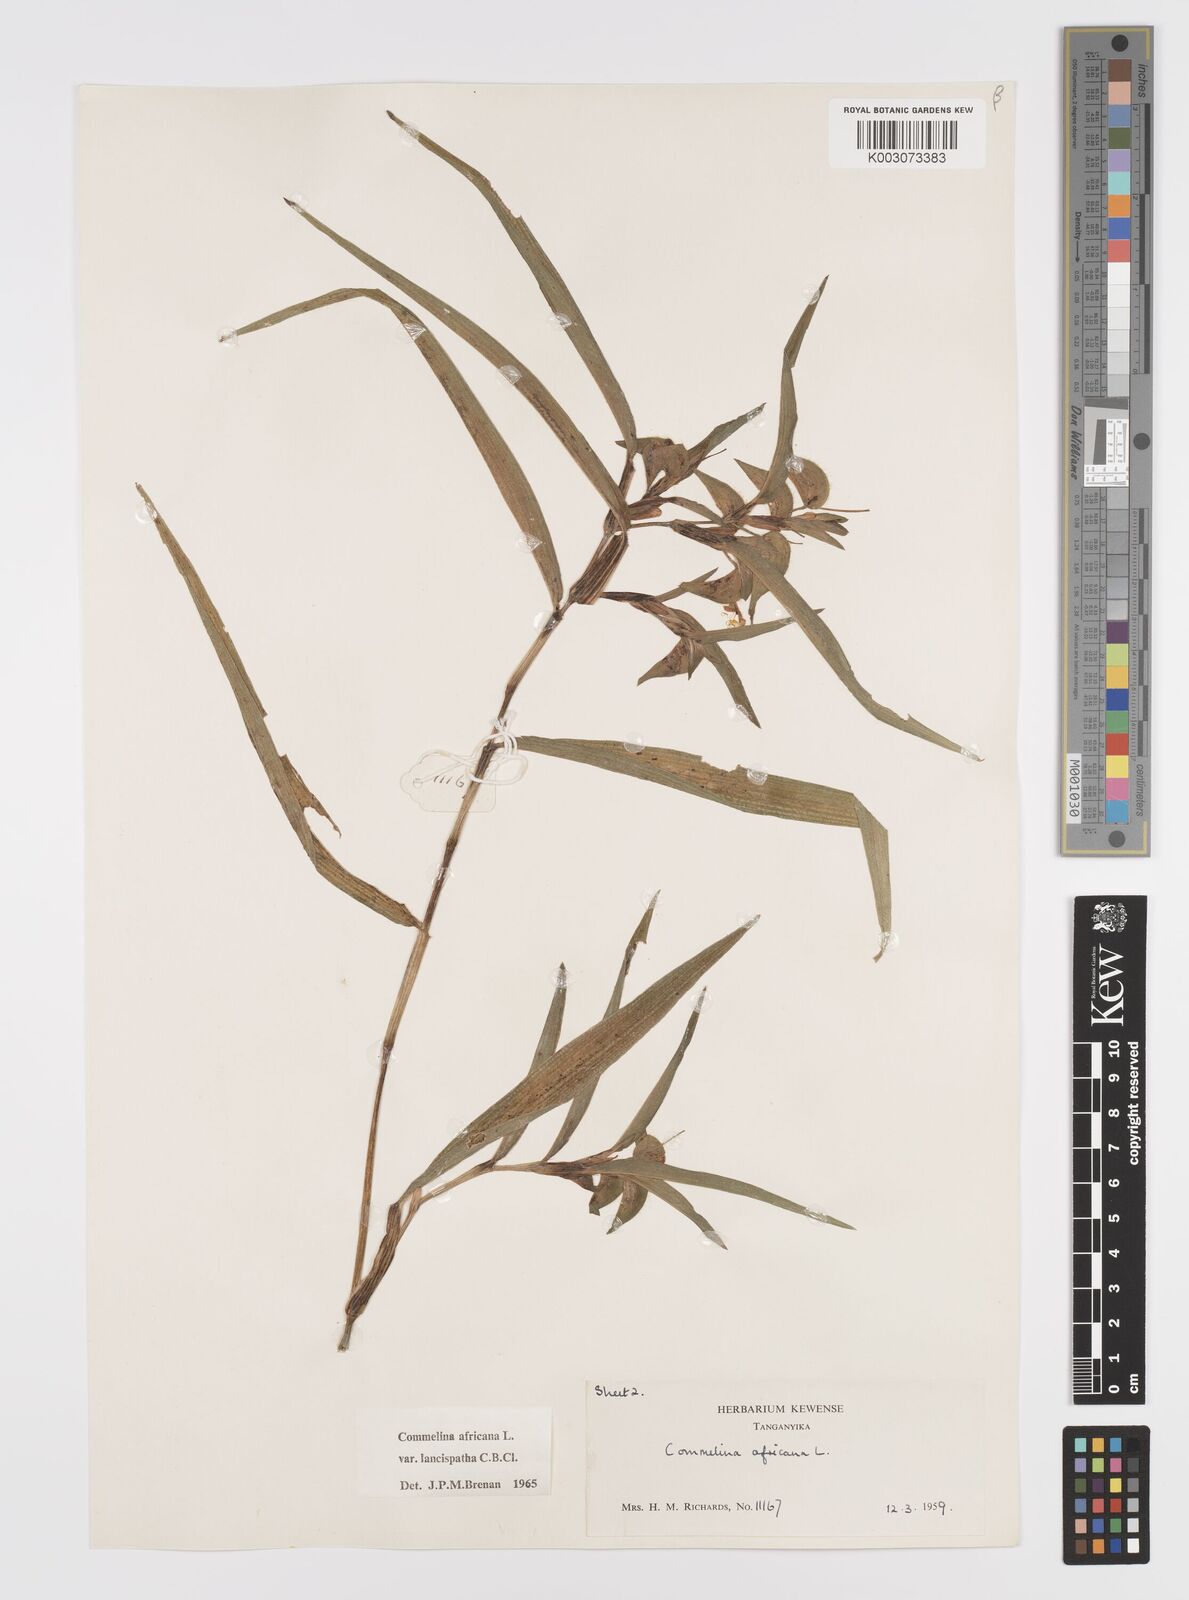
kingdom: Plantae
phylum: Tracheophyta
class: Liliopsida
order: Commelinales
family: Commelinaceae
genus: Commelina
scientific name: Commelina africana
